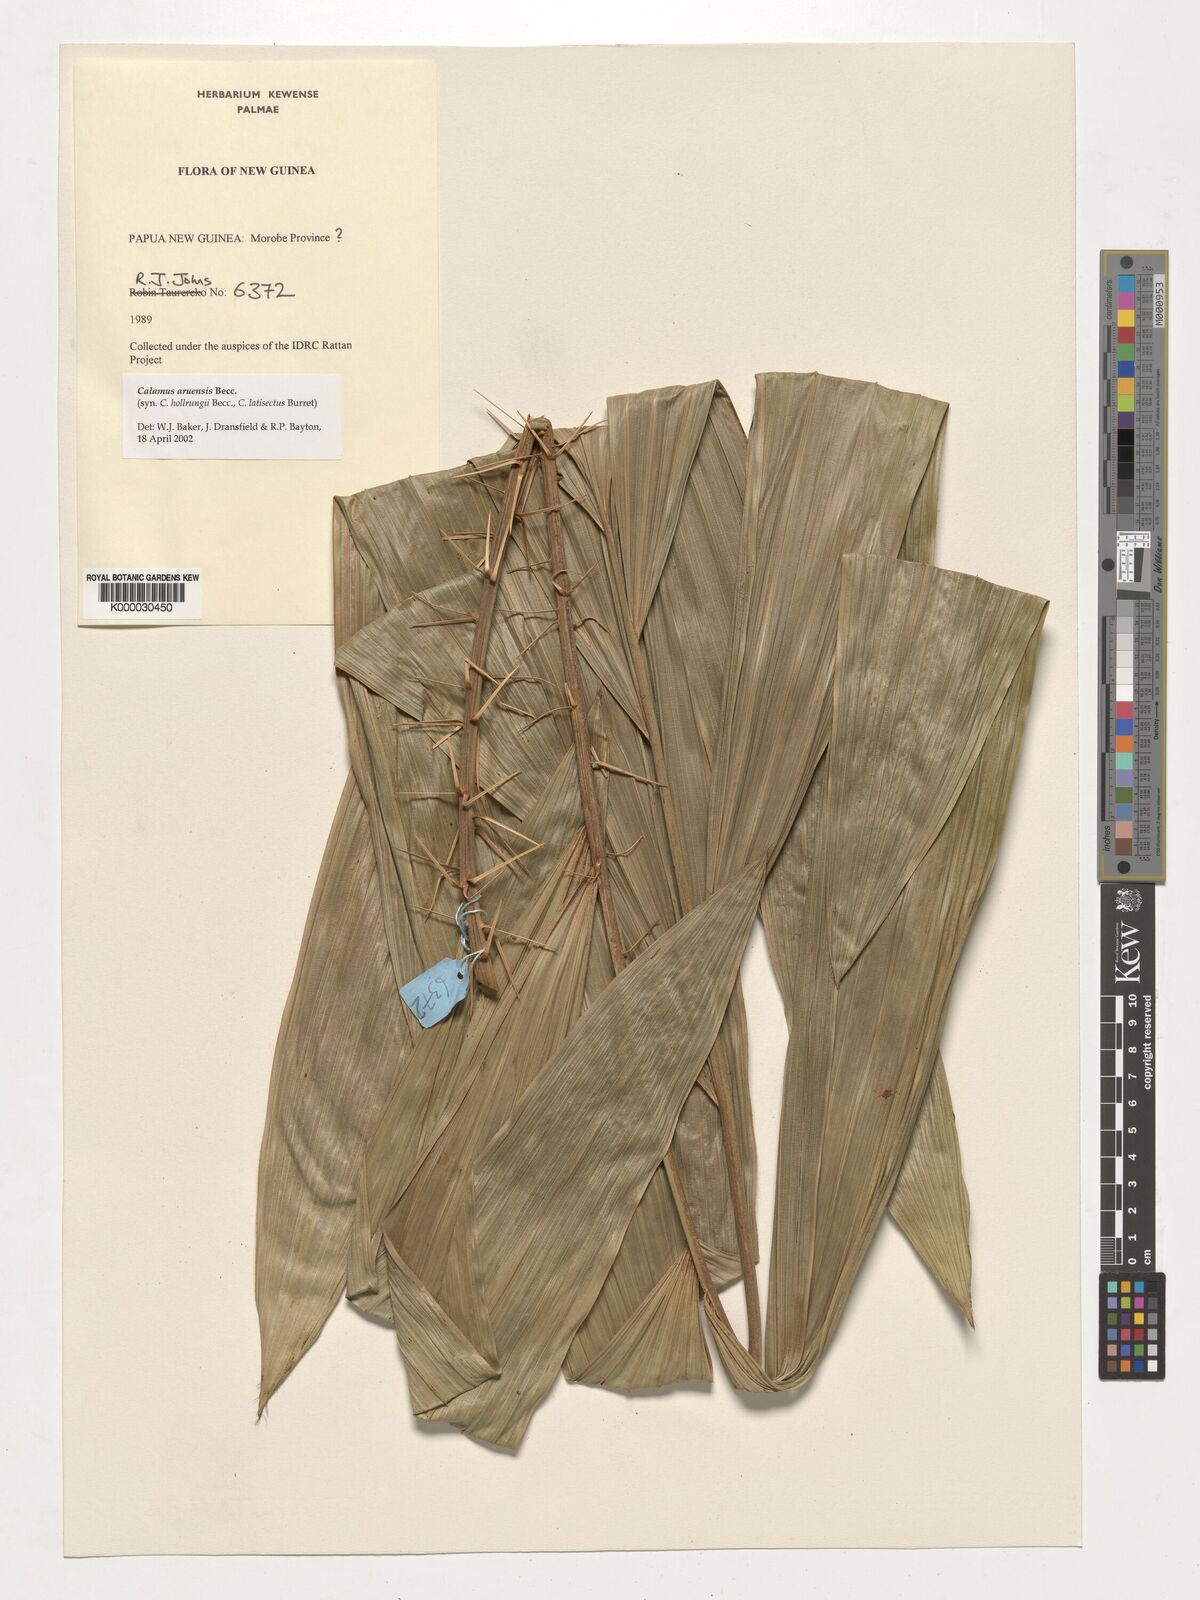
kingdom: Plantae
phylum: Tracheophyta
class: Liliopsida
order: Arecales
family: Arecaceae
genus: Calamus
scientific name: Calamus aruensis
